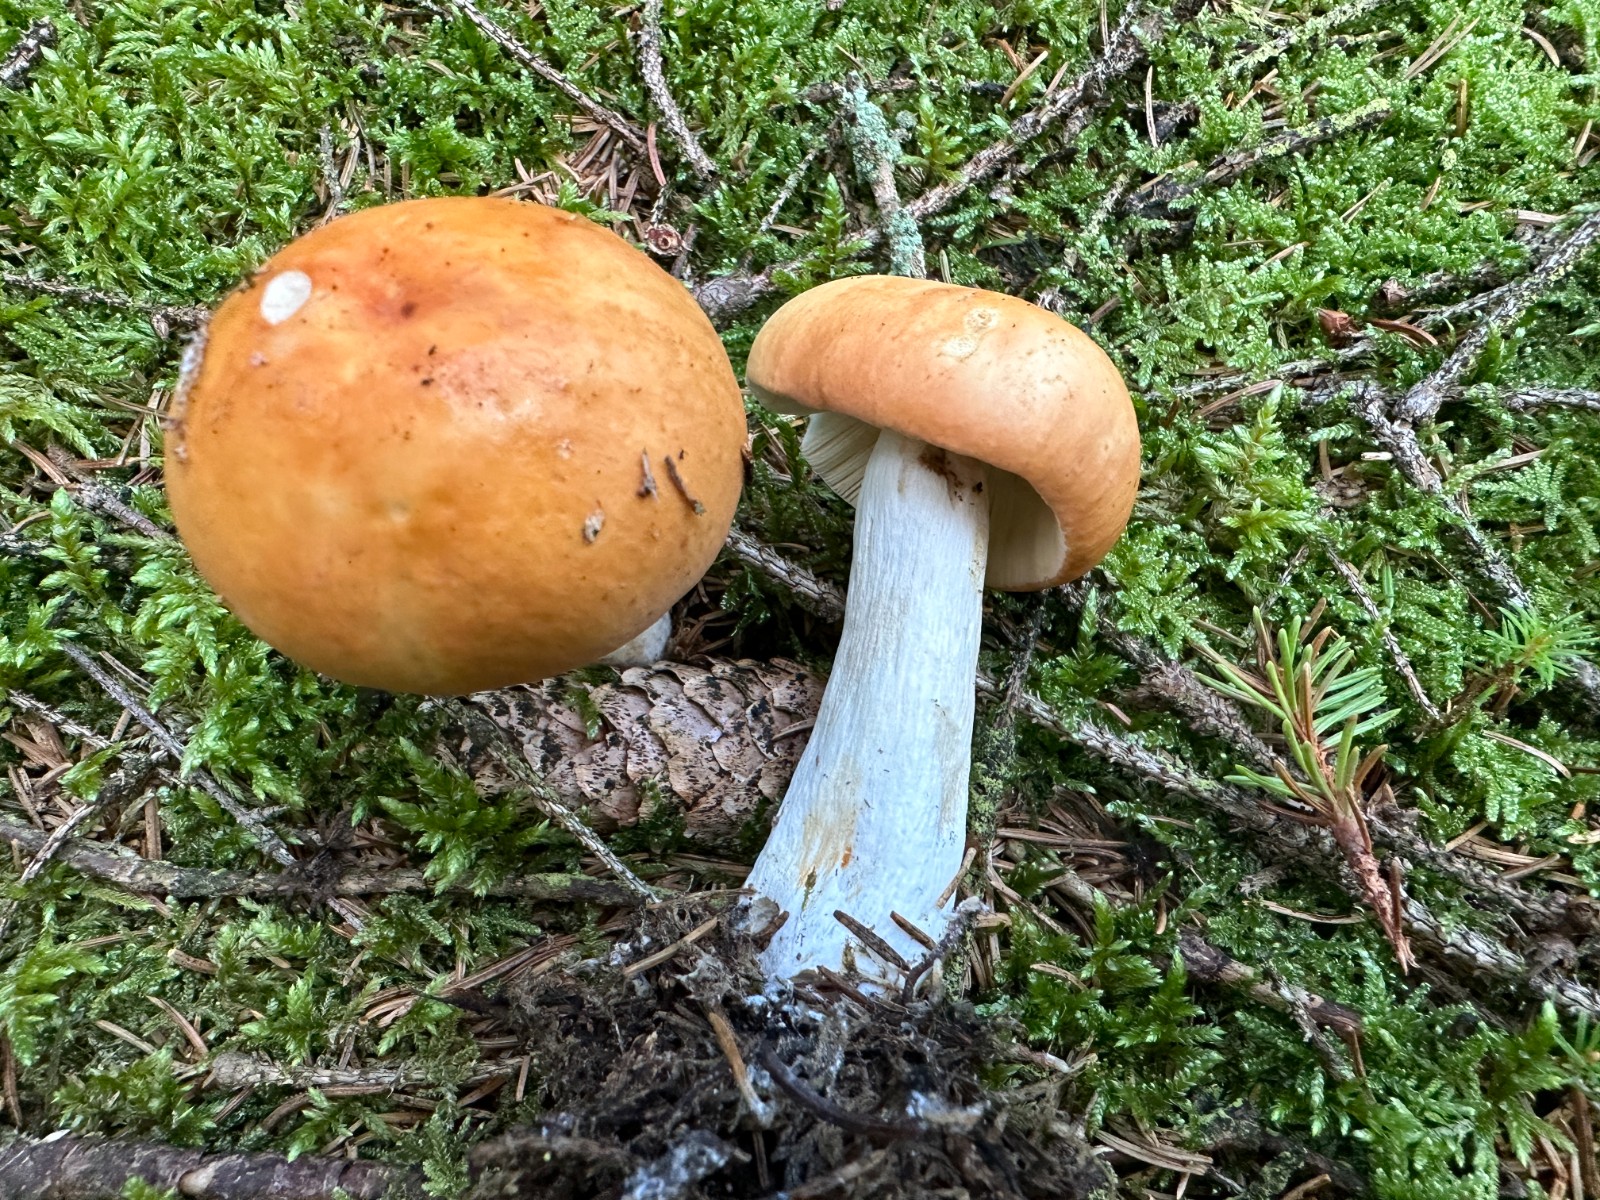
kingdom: Fungi
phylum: Basidiomycota
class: Agaricomycetes
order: Russulales
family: Russulaceae
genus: Russula
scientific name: Russula decolorans
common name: afblegende skørhat
